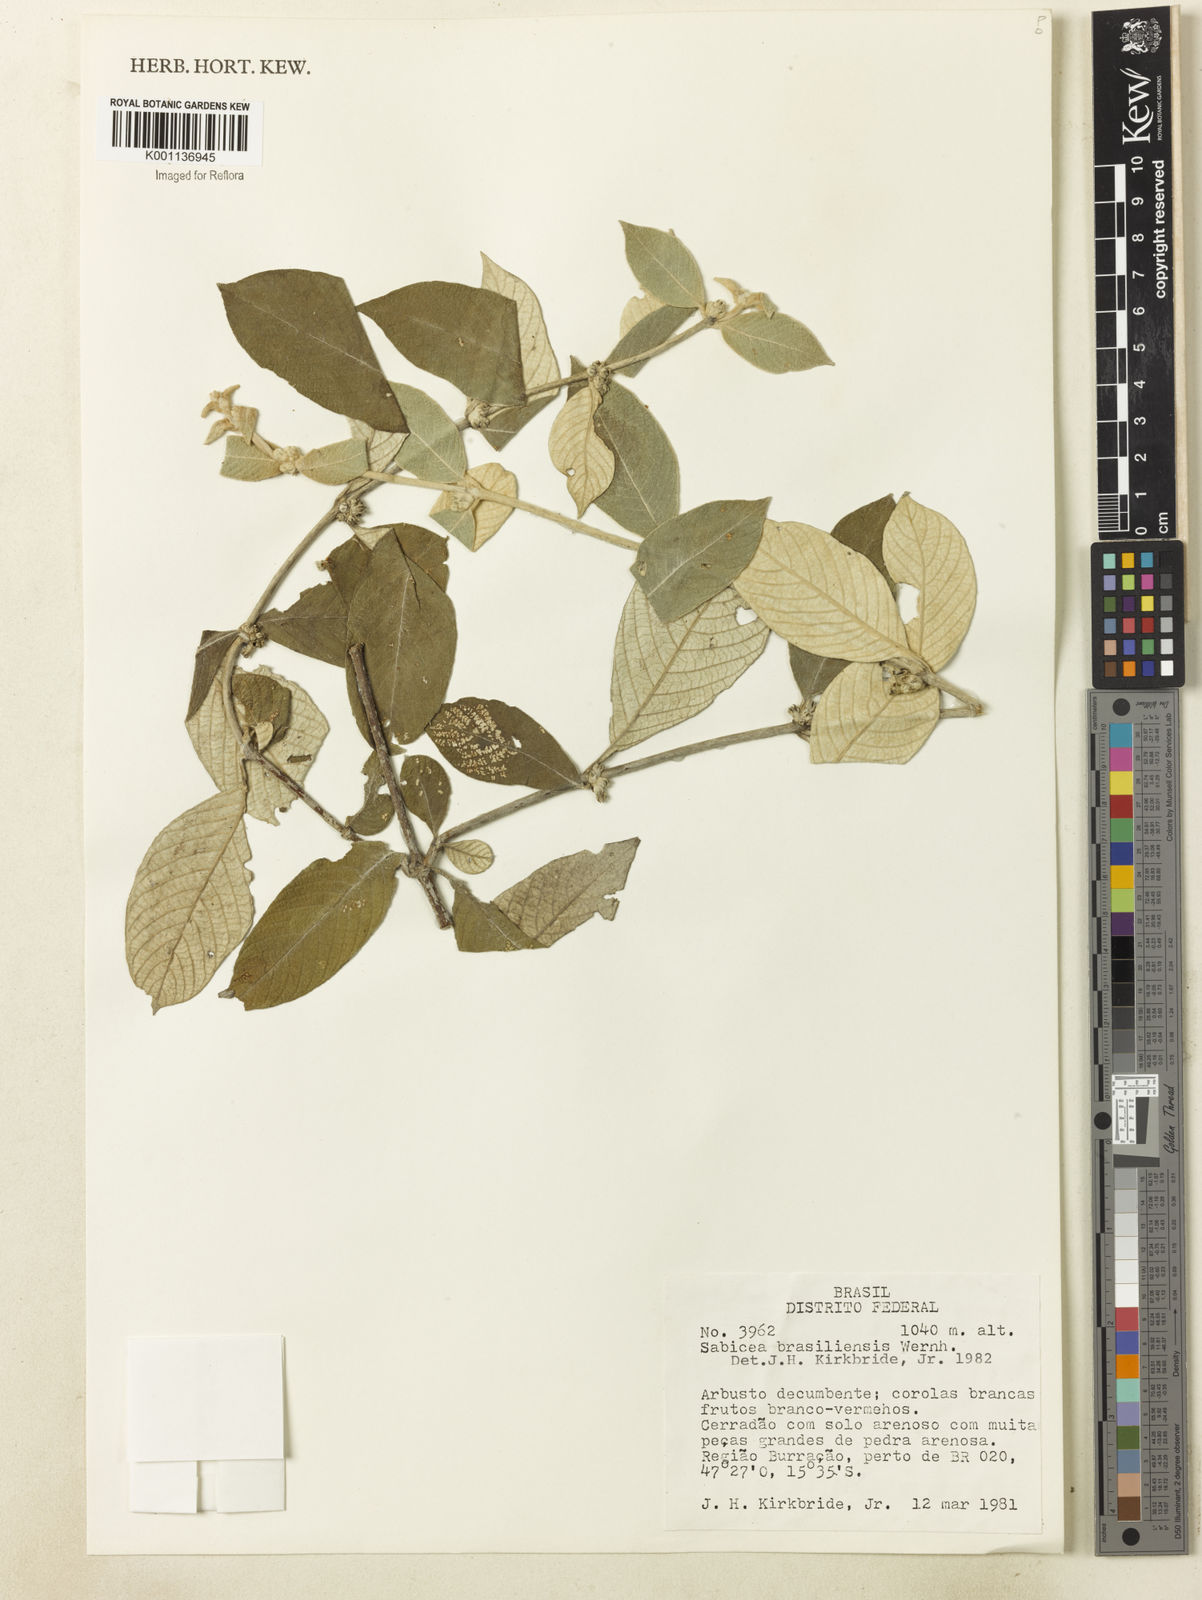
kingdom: Plantae
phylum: Tracheophyta
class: Magnoliopsida
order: Gentianales
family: Rubiaceae
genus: Sabicea
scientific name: Sabicea brasiliensis
